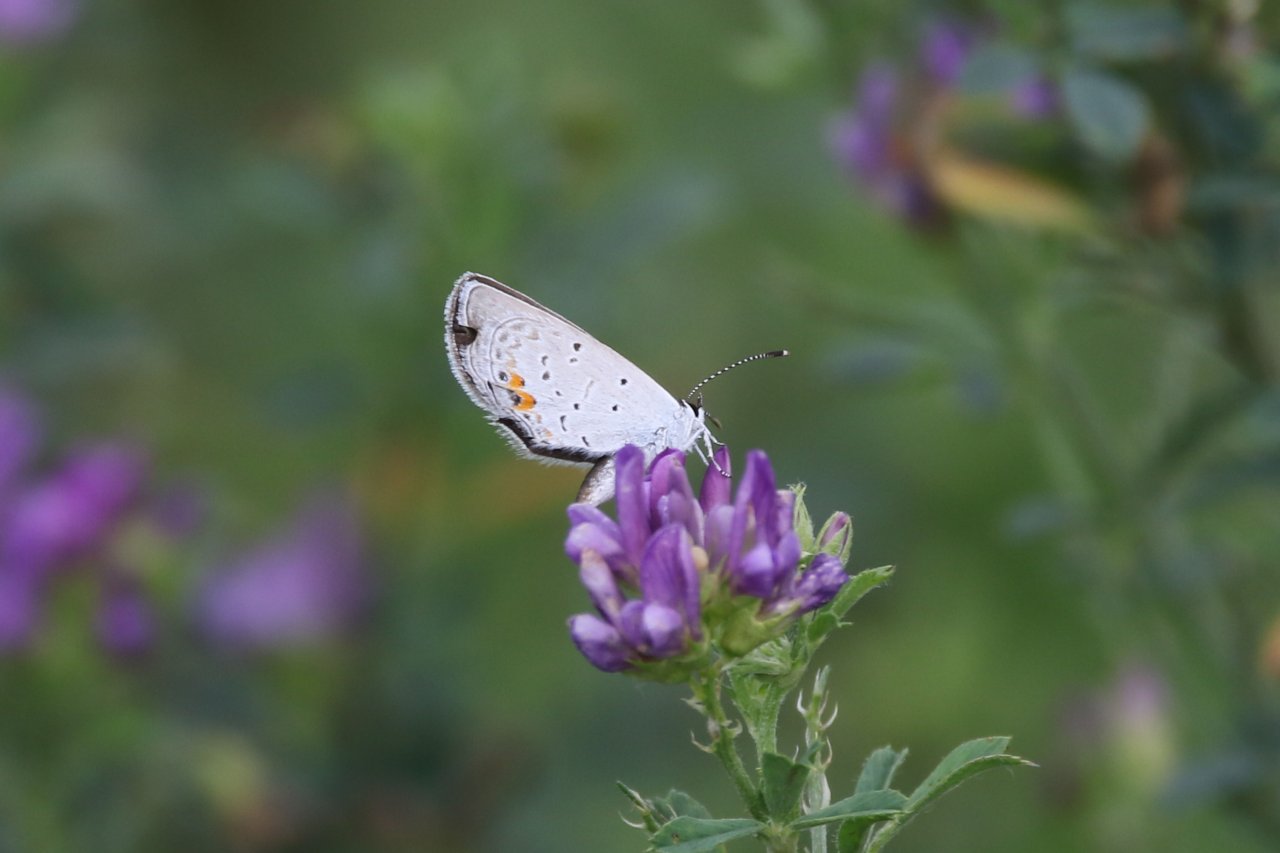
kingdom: Animalia
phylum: Arthropoda
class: Insecta
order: Lepidoptera
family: Lycaenidae
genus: Elkalyce
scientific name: Elkalyce comyntas
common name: Eastern Tailed-Blue
